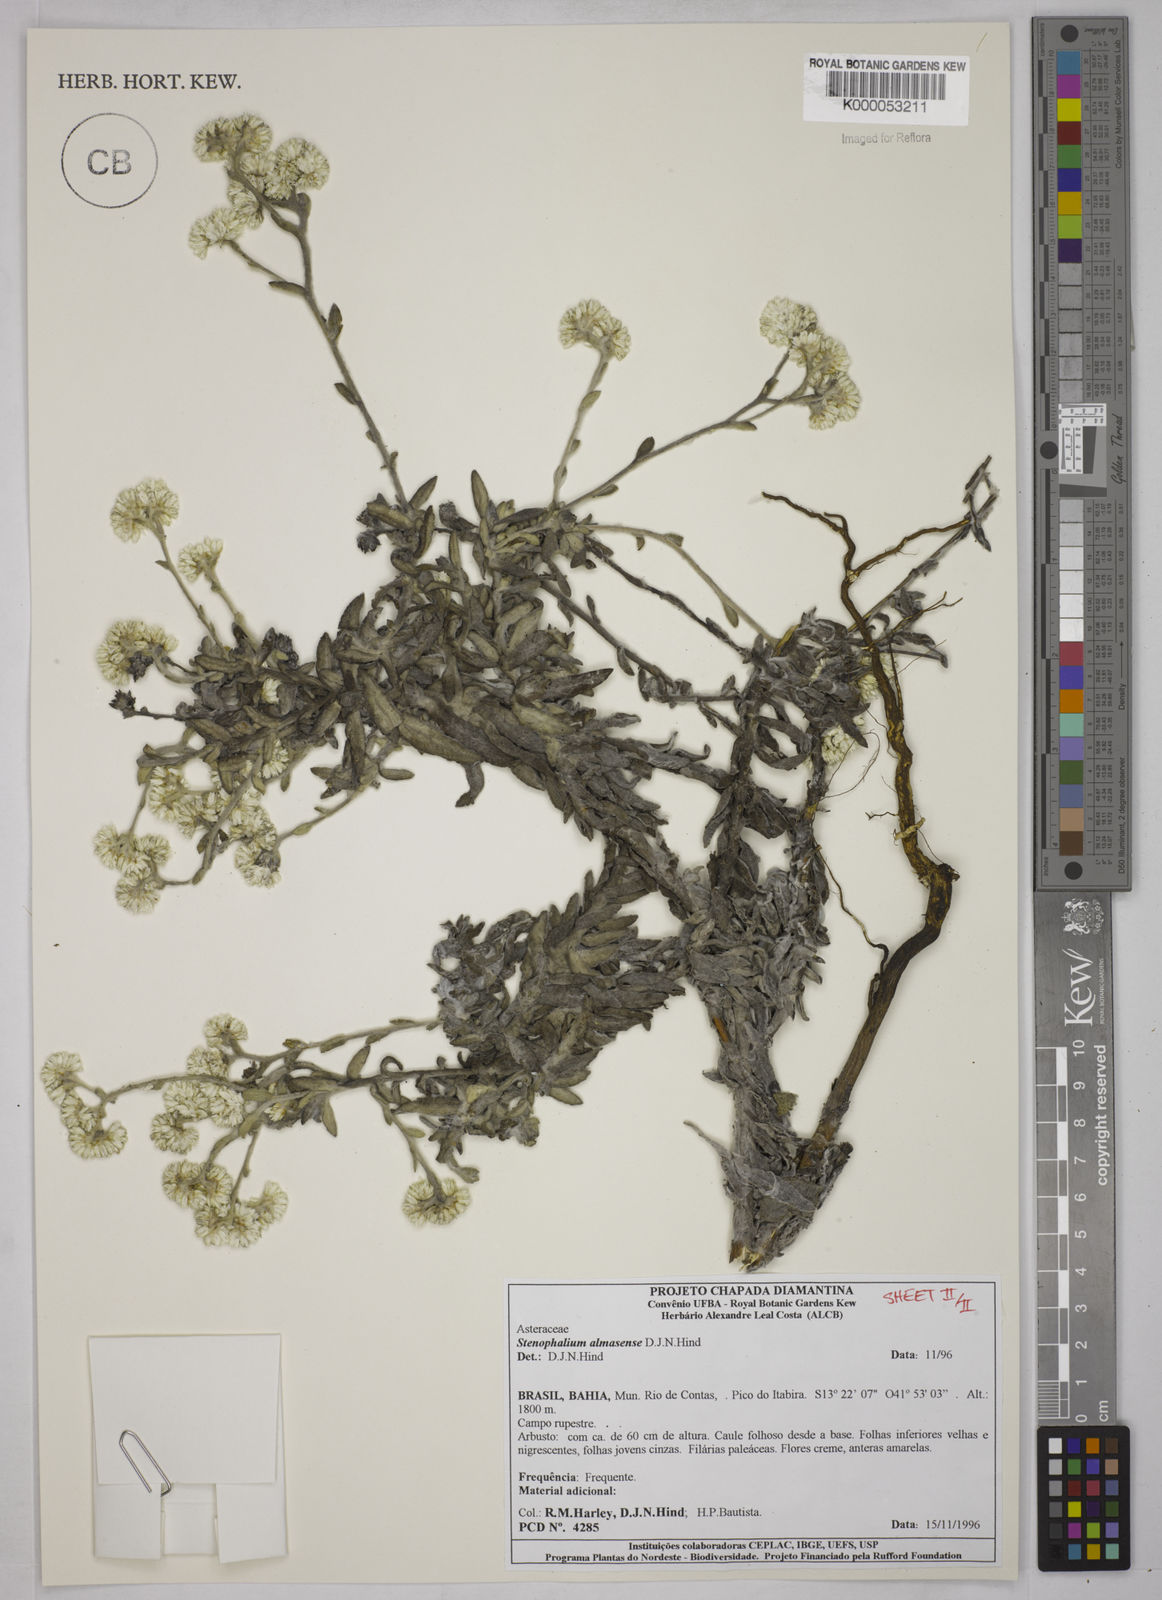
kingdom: Plantae
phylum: Tracheophyta
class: Magnoliopsida
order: Asterales
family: Asteraceae
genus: Achyrocline
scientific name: Achyrocline eriodes
